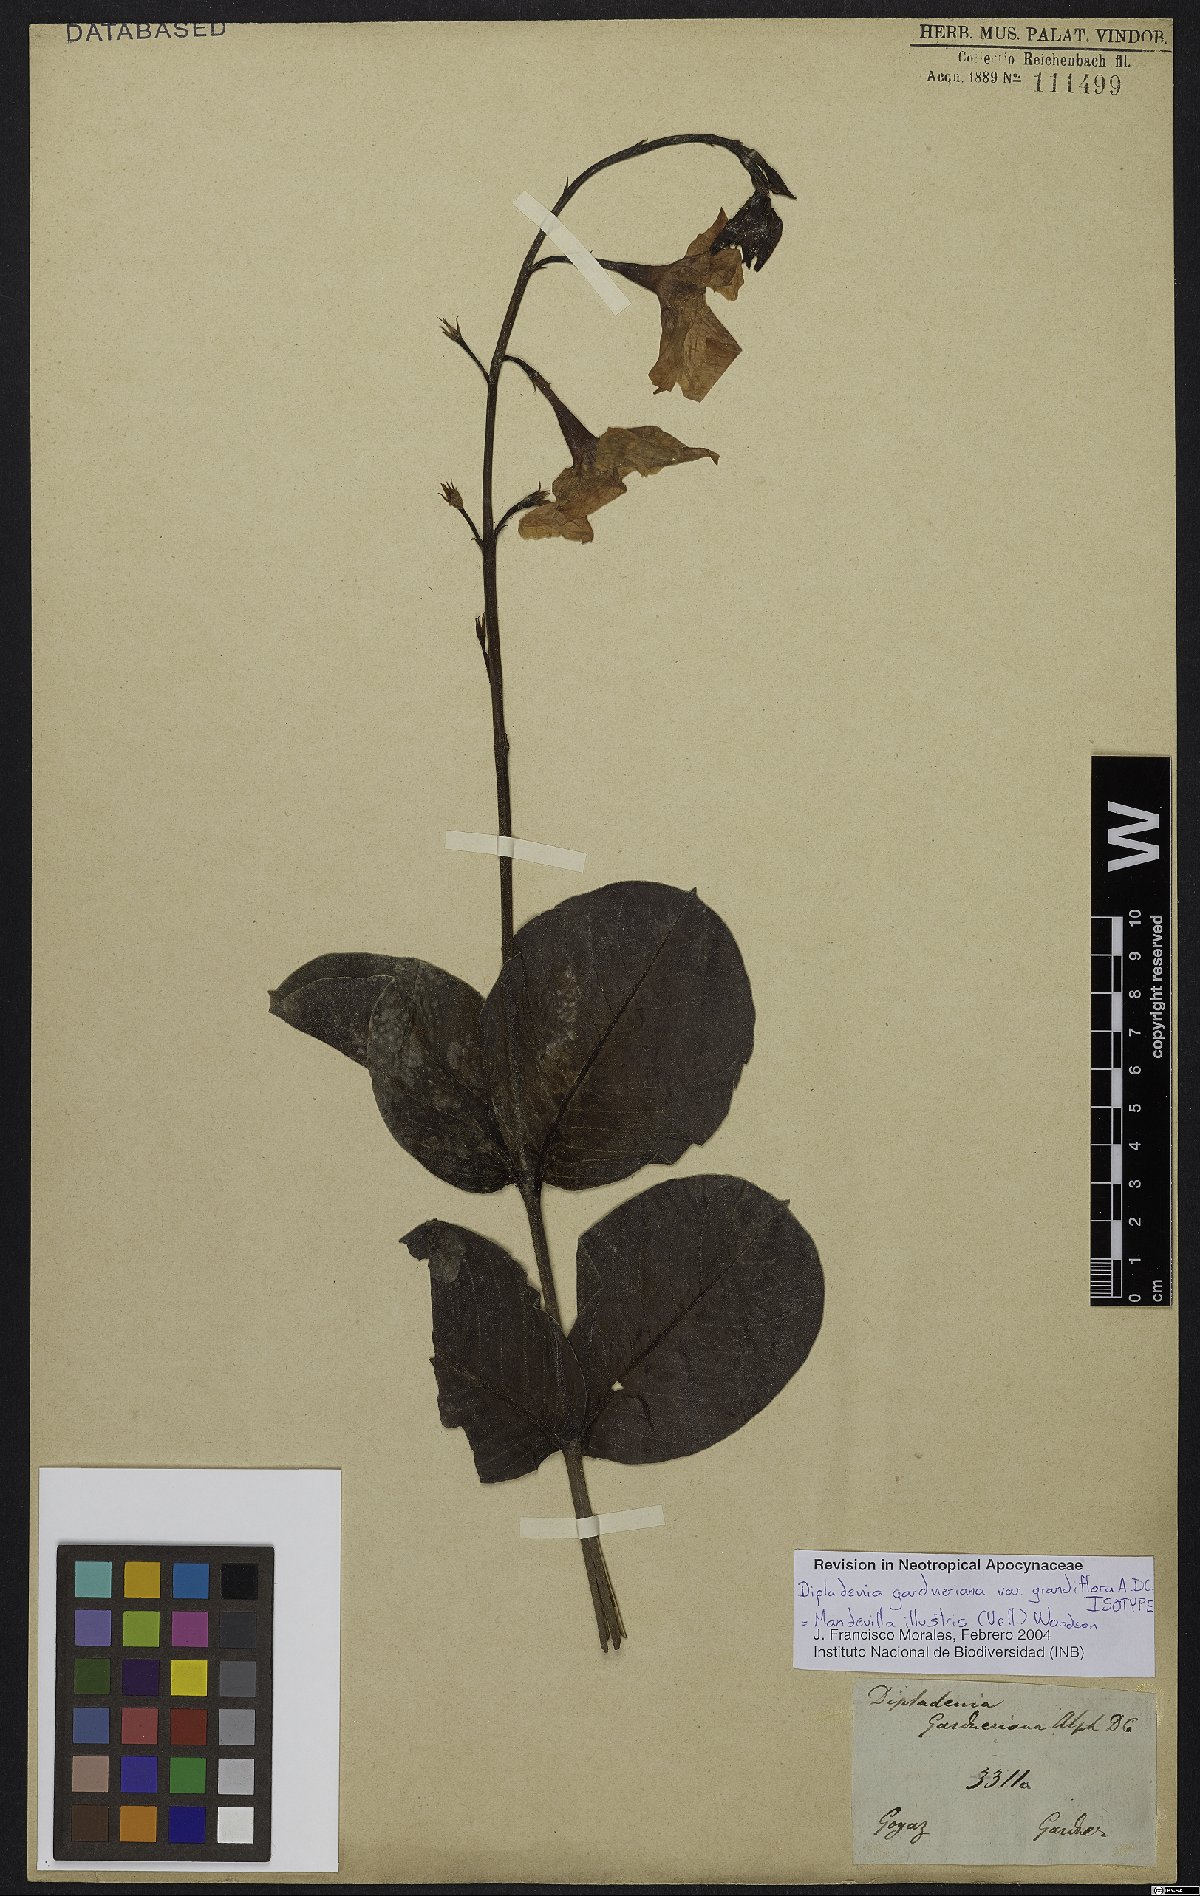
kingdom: Plantae
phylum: Tracheophyta
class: Magnoliopsida
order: Gentianales
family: Apocynaceae
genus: Mandevilla
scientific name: Mandevilla illustris
